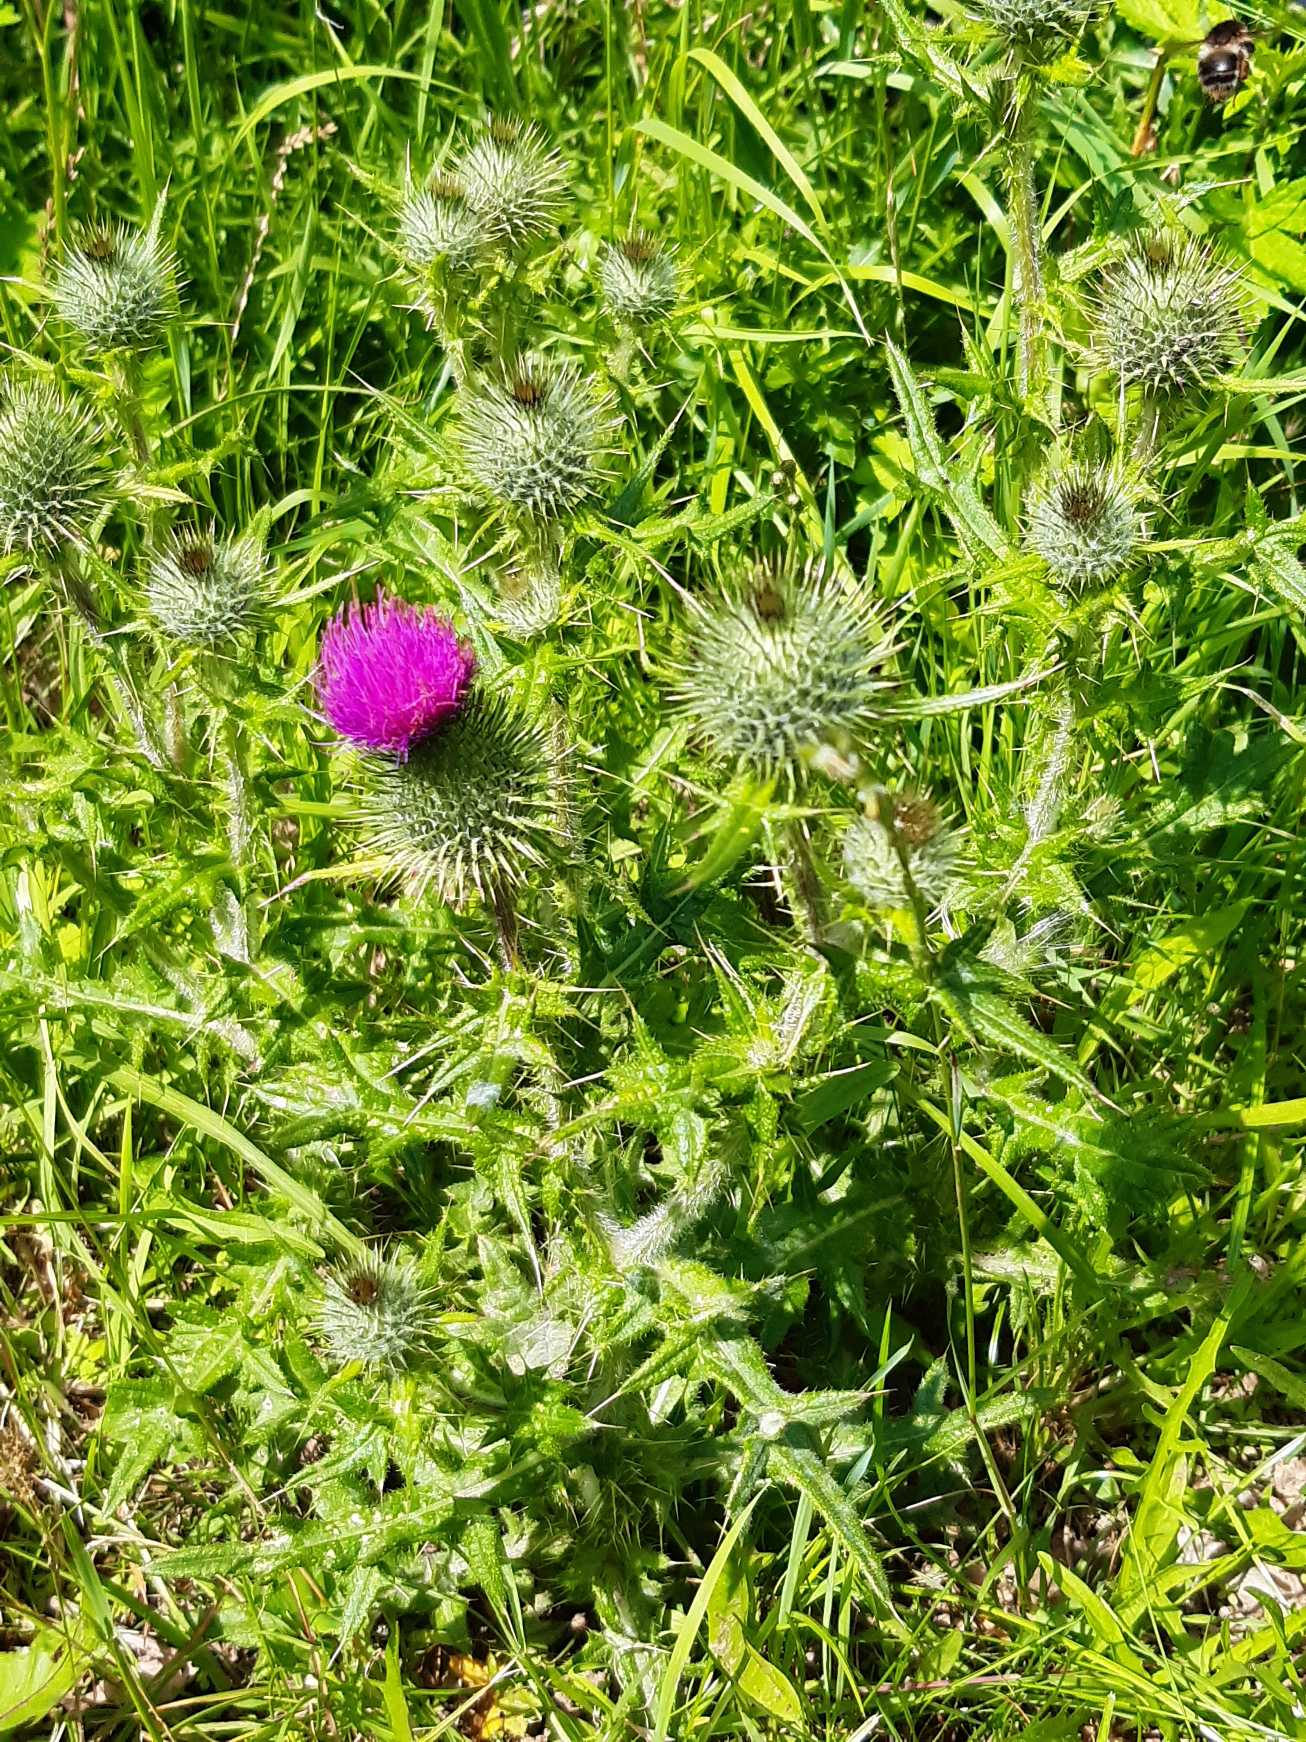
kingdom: Plantae
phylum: Tracheophyta
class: Magnoliopsida
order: Asterales
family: Asteraceae
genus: Cirsium
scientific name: Cirsium vulgare
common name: Horse-tidsel
